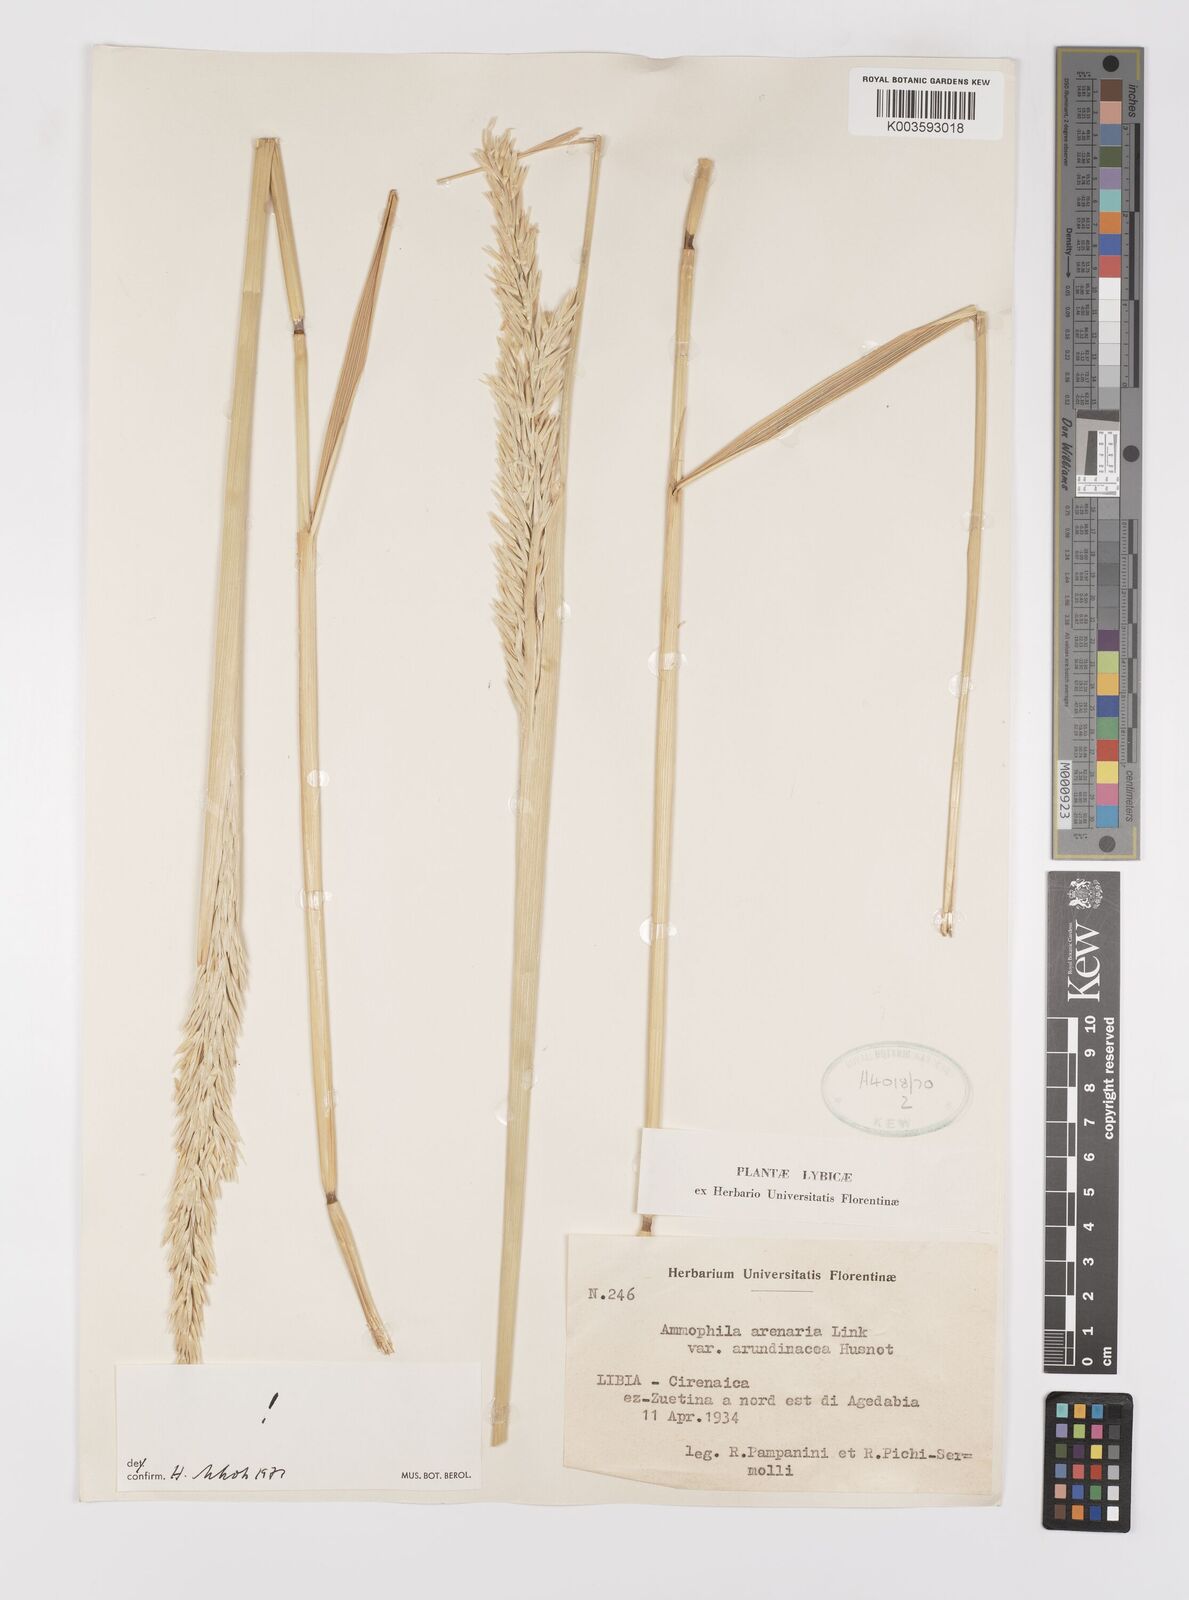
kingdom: Plantae
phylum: Tracheophyta
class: Liliopsida
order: Poales
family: Poaceae
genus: Calamagrostis
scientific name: Calamagrostis arenaria
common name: European beachgrass
